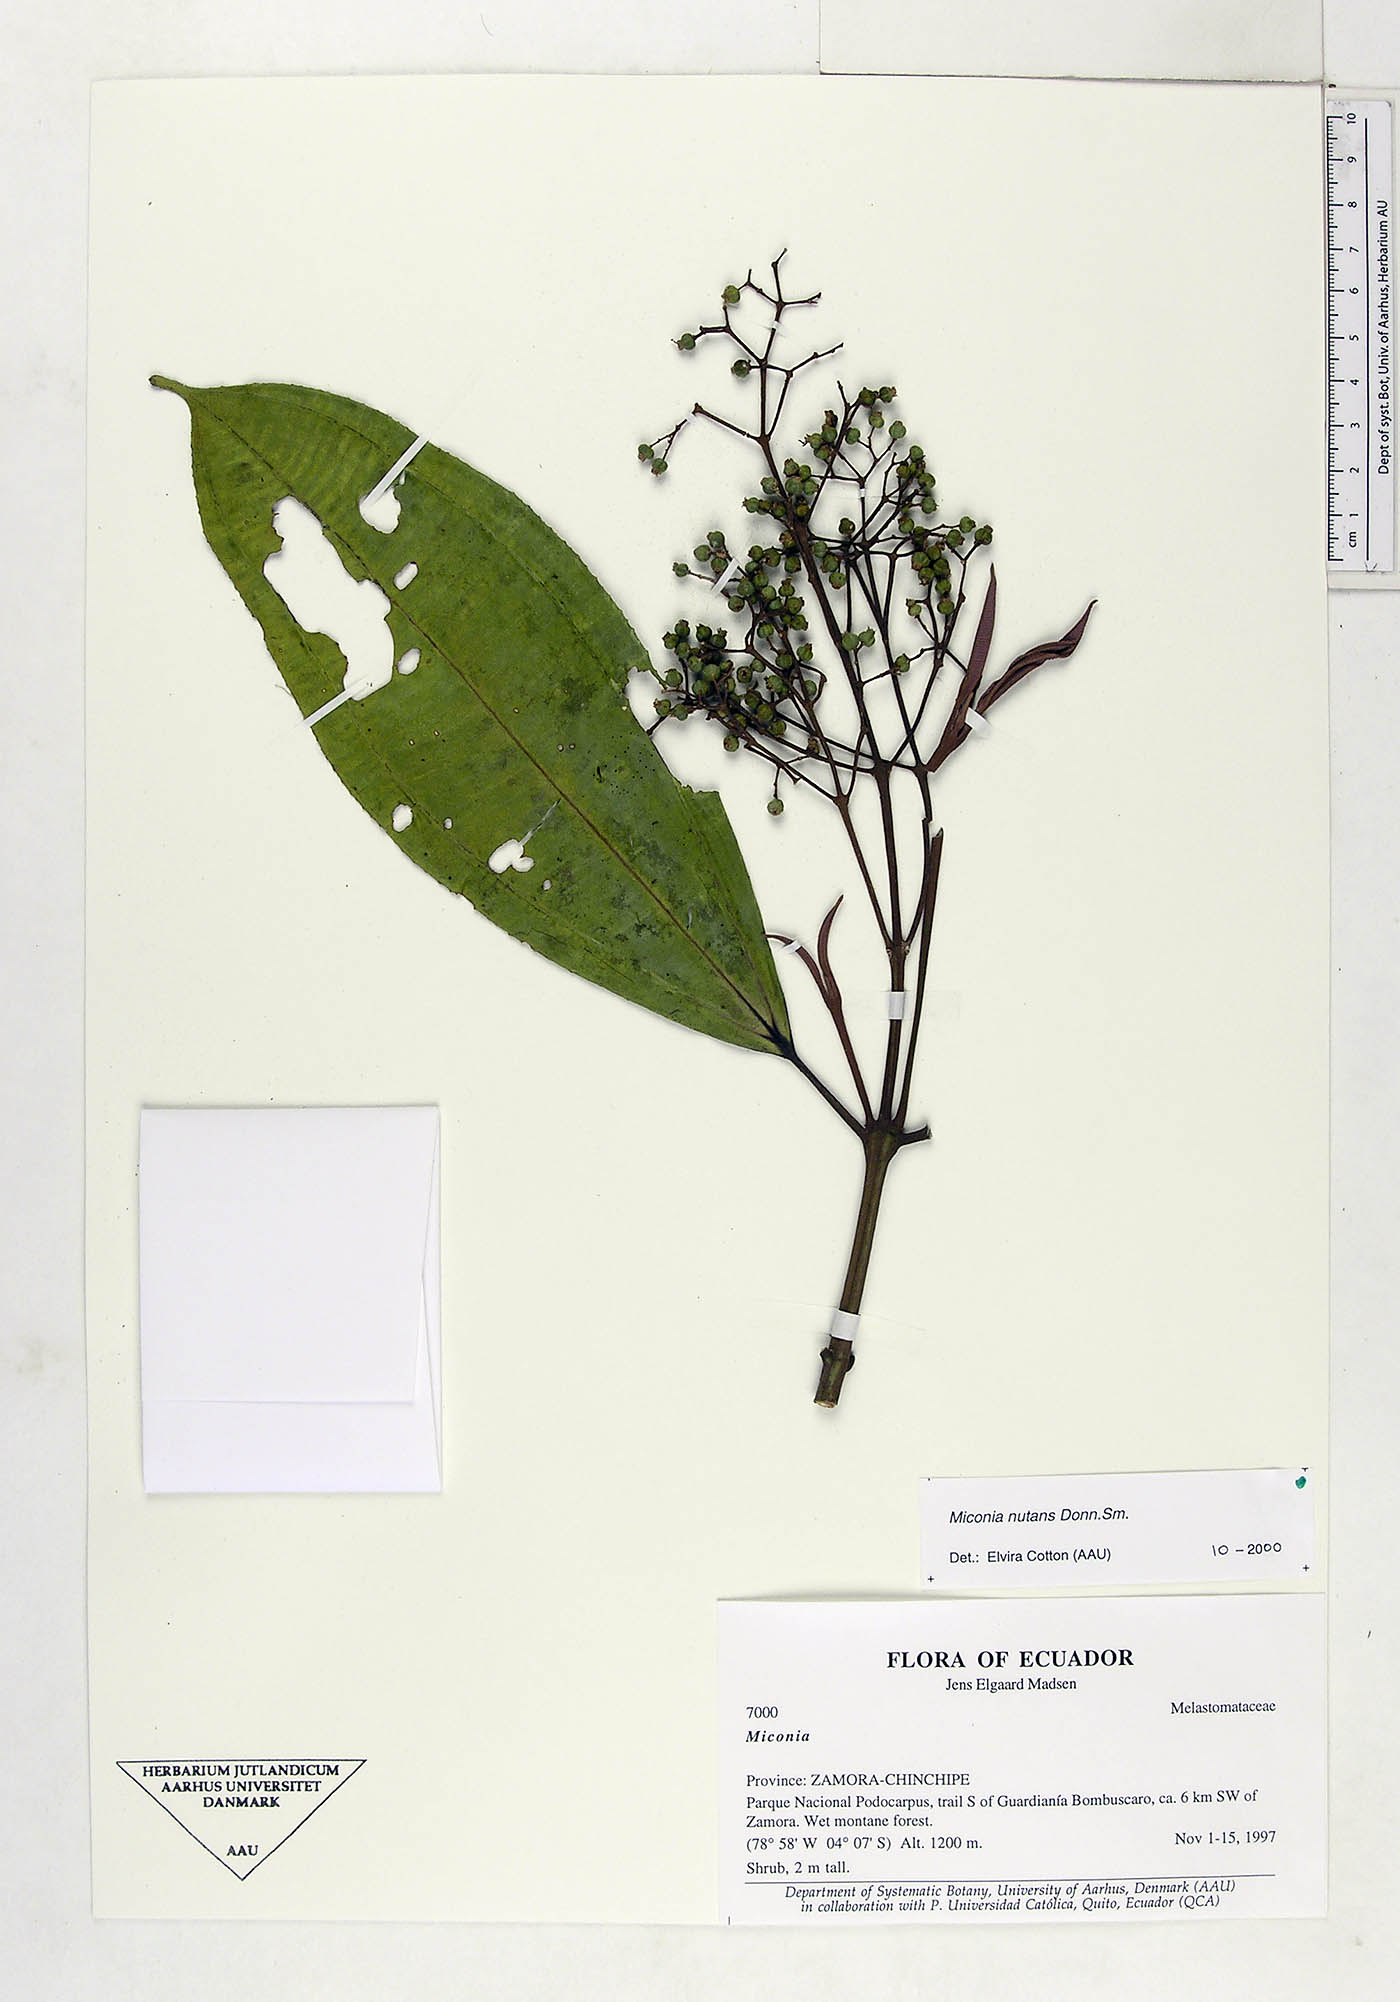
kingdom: Plantae
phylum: Tracheophyta
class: Magnoliopsida
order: Myrtales
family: Melastomataceae
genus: Miconia
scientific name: Miconia nutans
